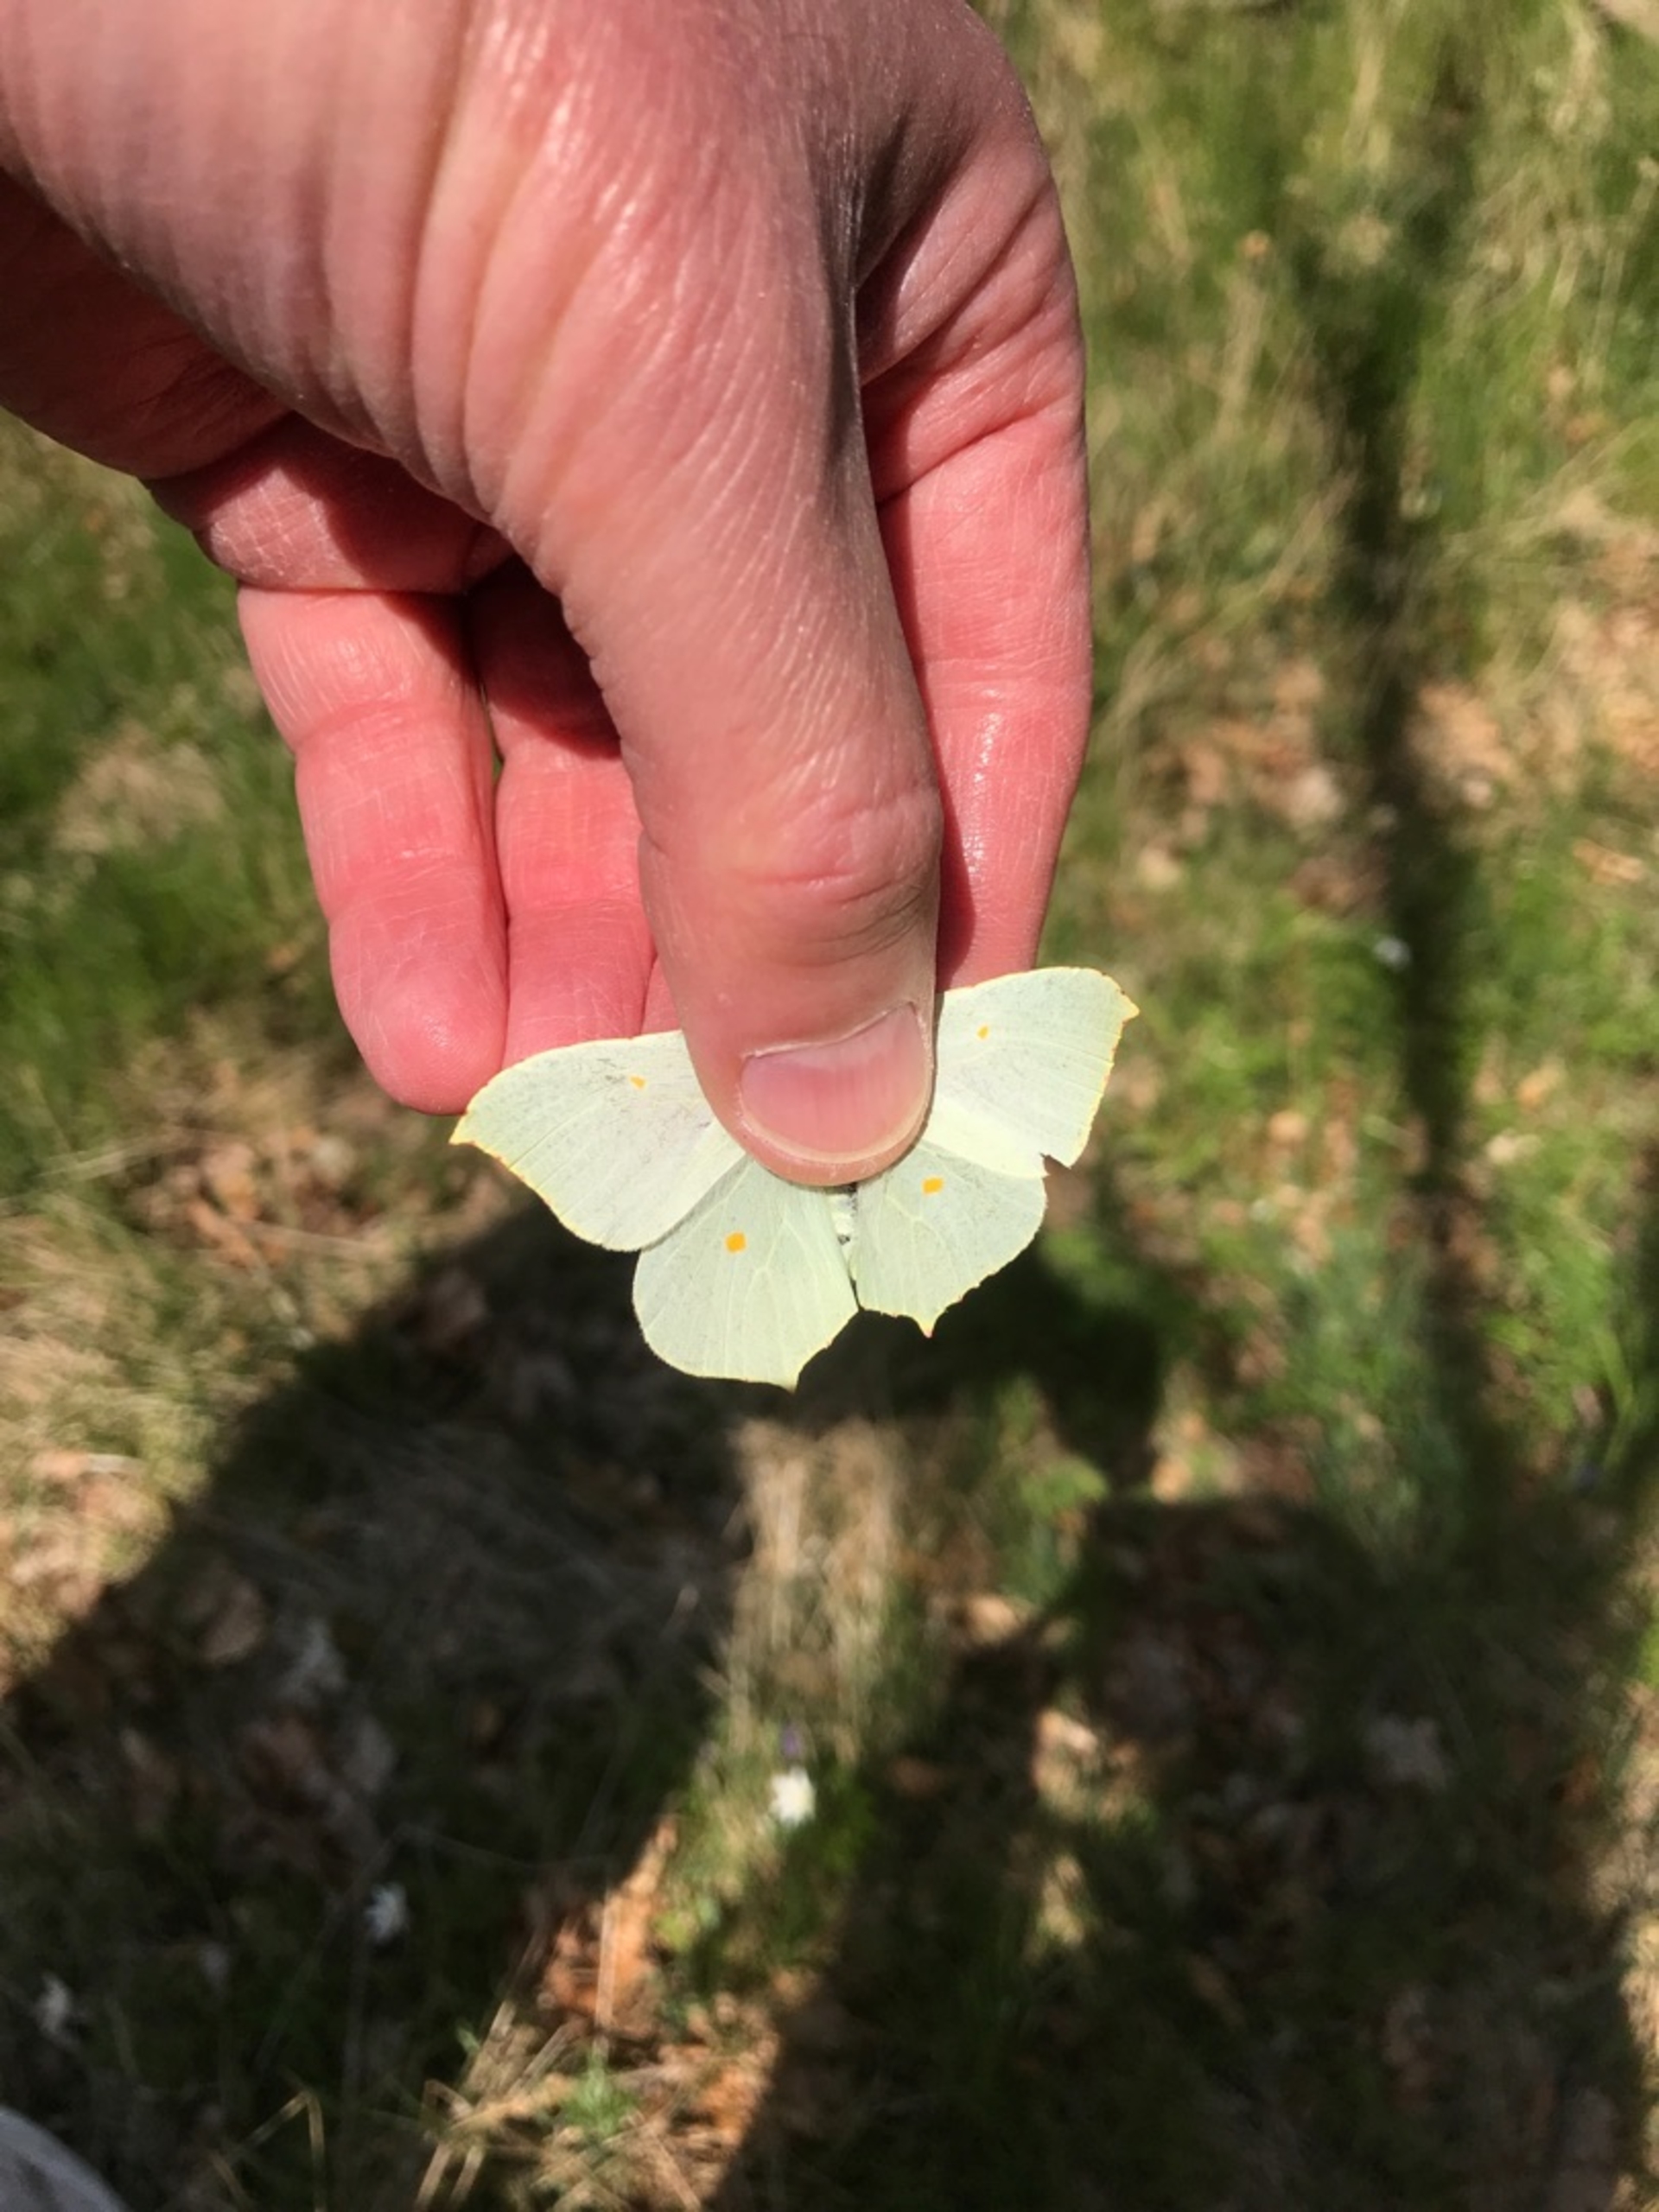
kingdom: Animalia
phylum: Arthropoda
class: Insecta
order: Lepidoptera
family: Pieridae
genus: Gonepteryx
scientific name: Gonepteryx rhamni
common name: Citronsommerfugl
